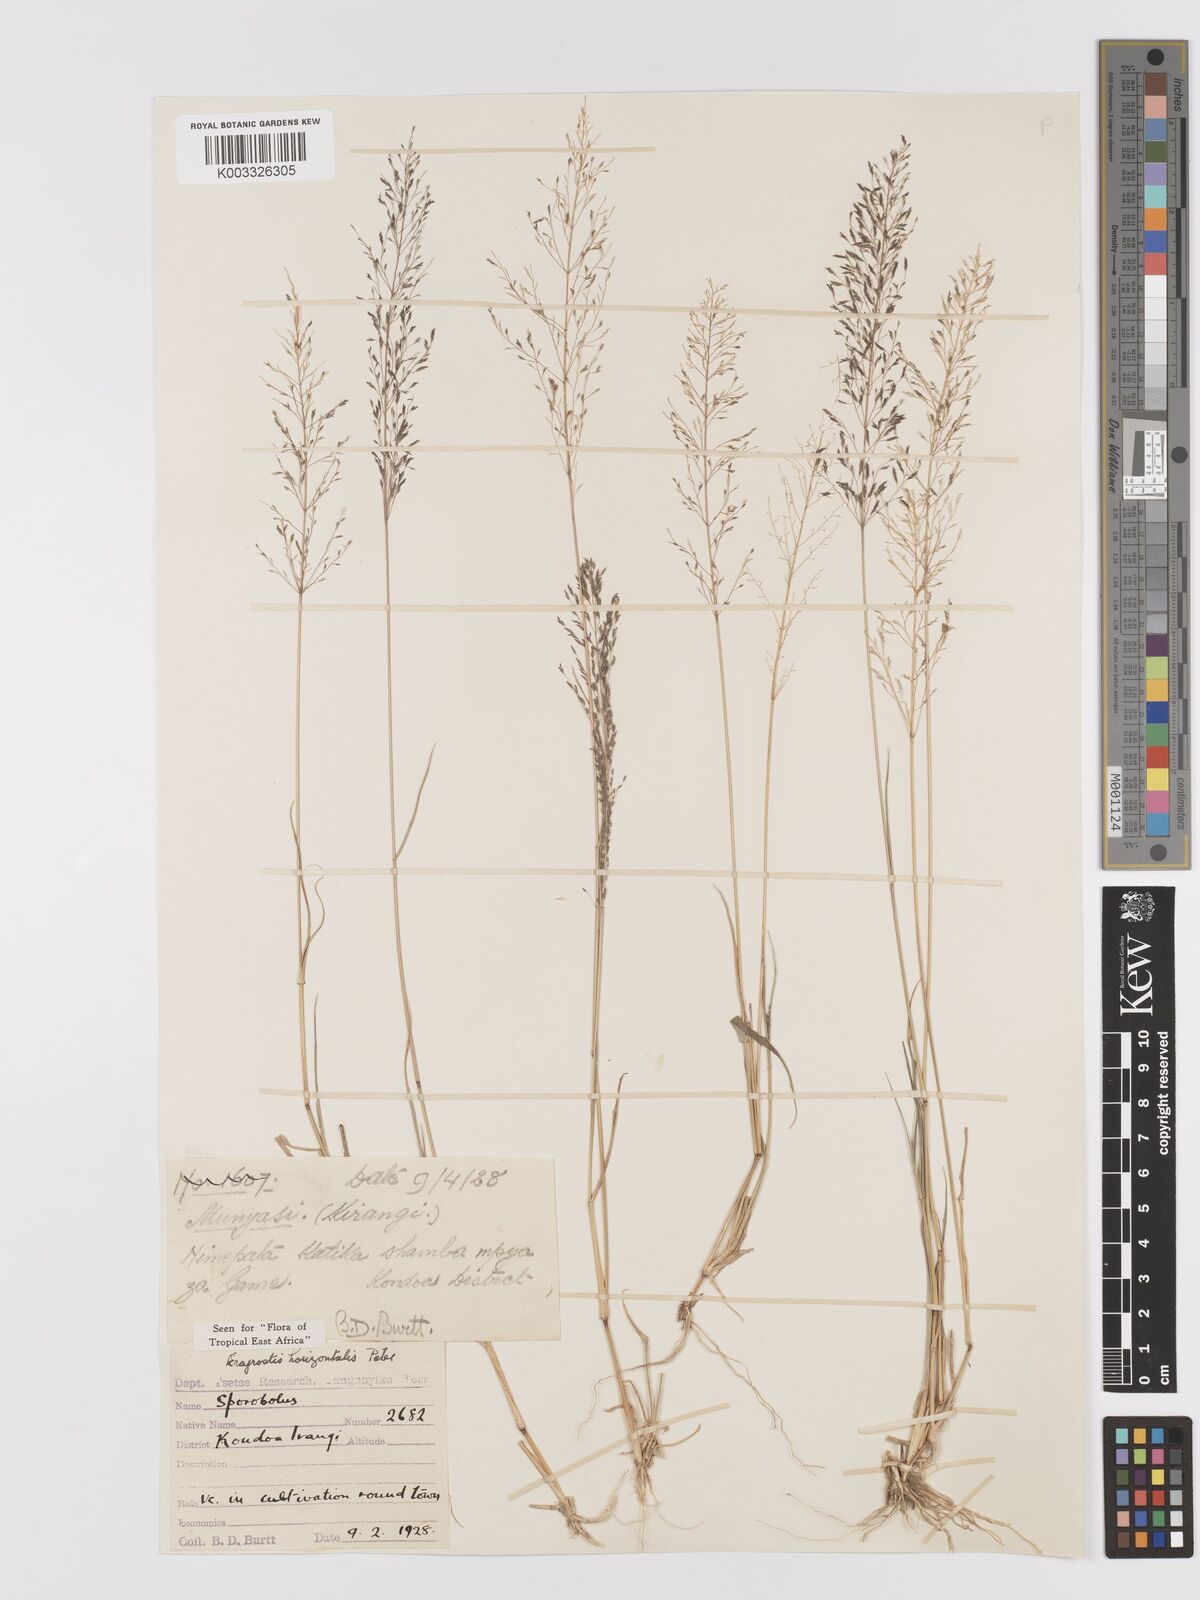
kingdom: Plantae
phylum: Tracheophyta
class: Liliopsida
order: Poales
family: Poaceae
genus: Eragrostis
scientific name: Eragrostis cylindriflora
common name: Cylinderflower lovegrass
